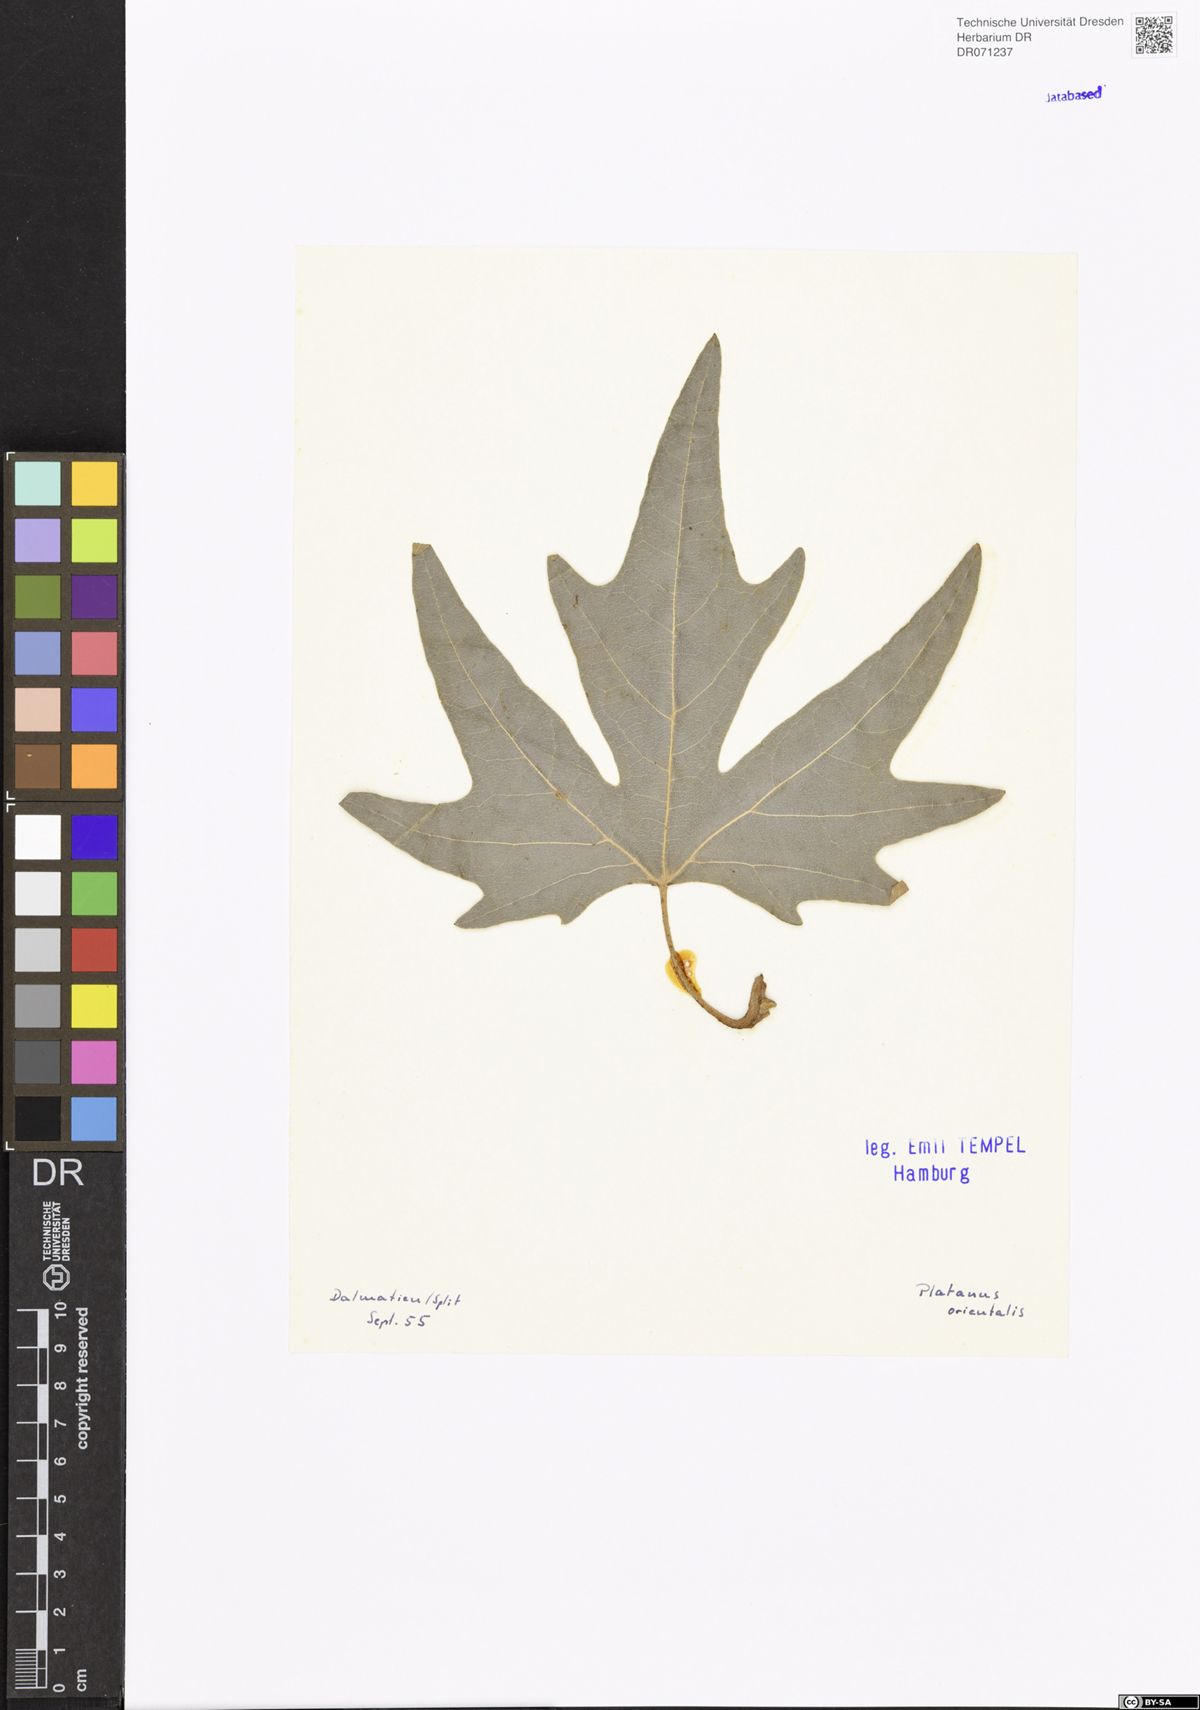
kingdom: Plantae
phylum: Tracheophyta
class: Magnoliopsida
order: Proteales
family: Platanaceae
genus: Platanus
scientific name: Platanus orientalis
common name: Oriental plane
